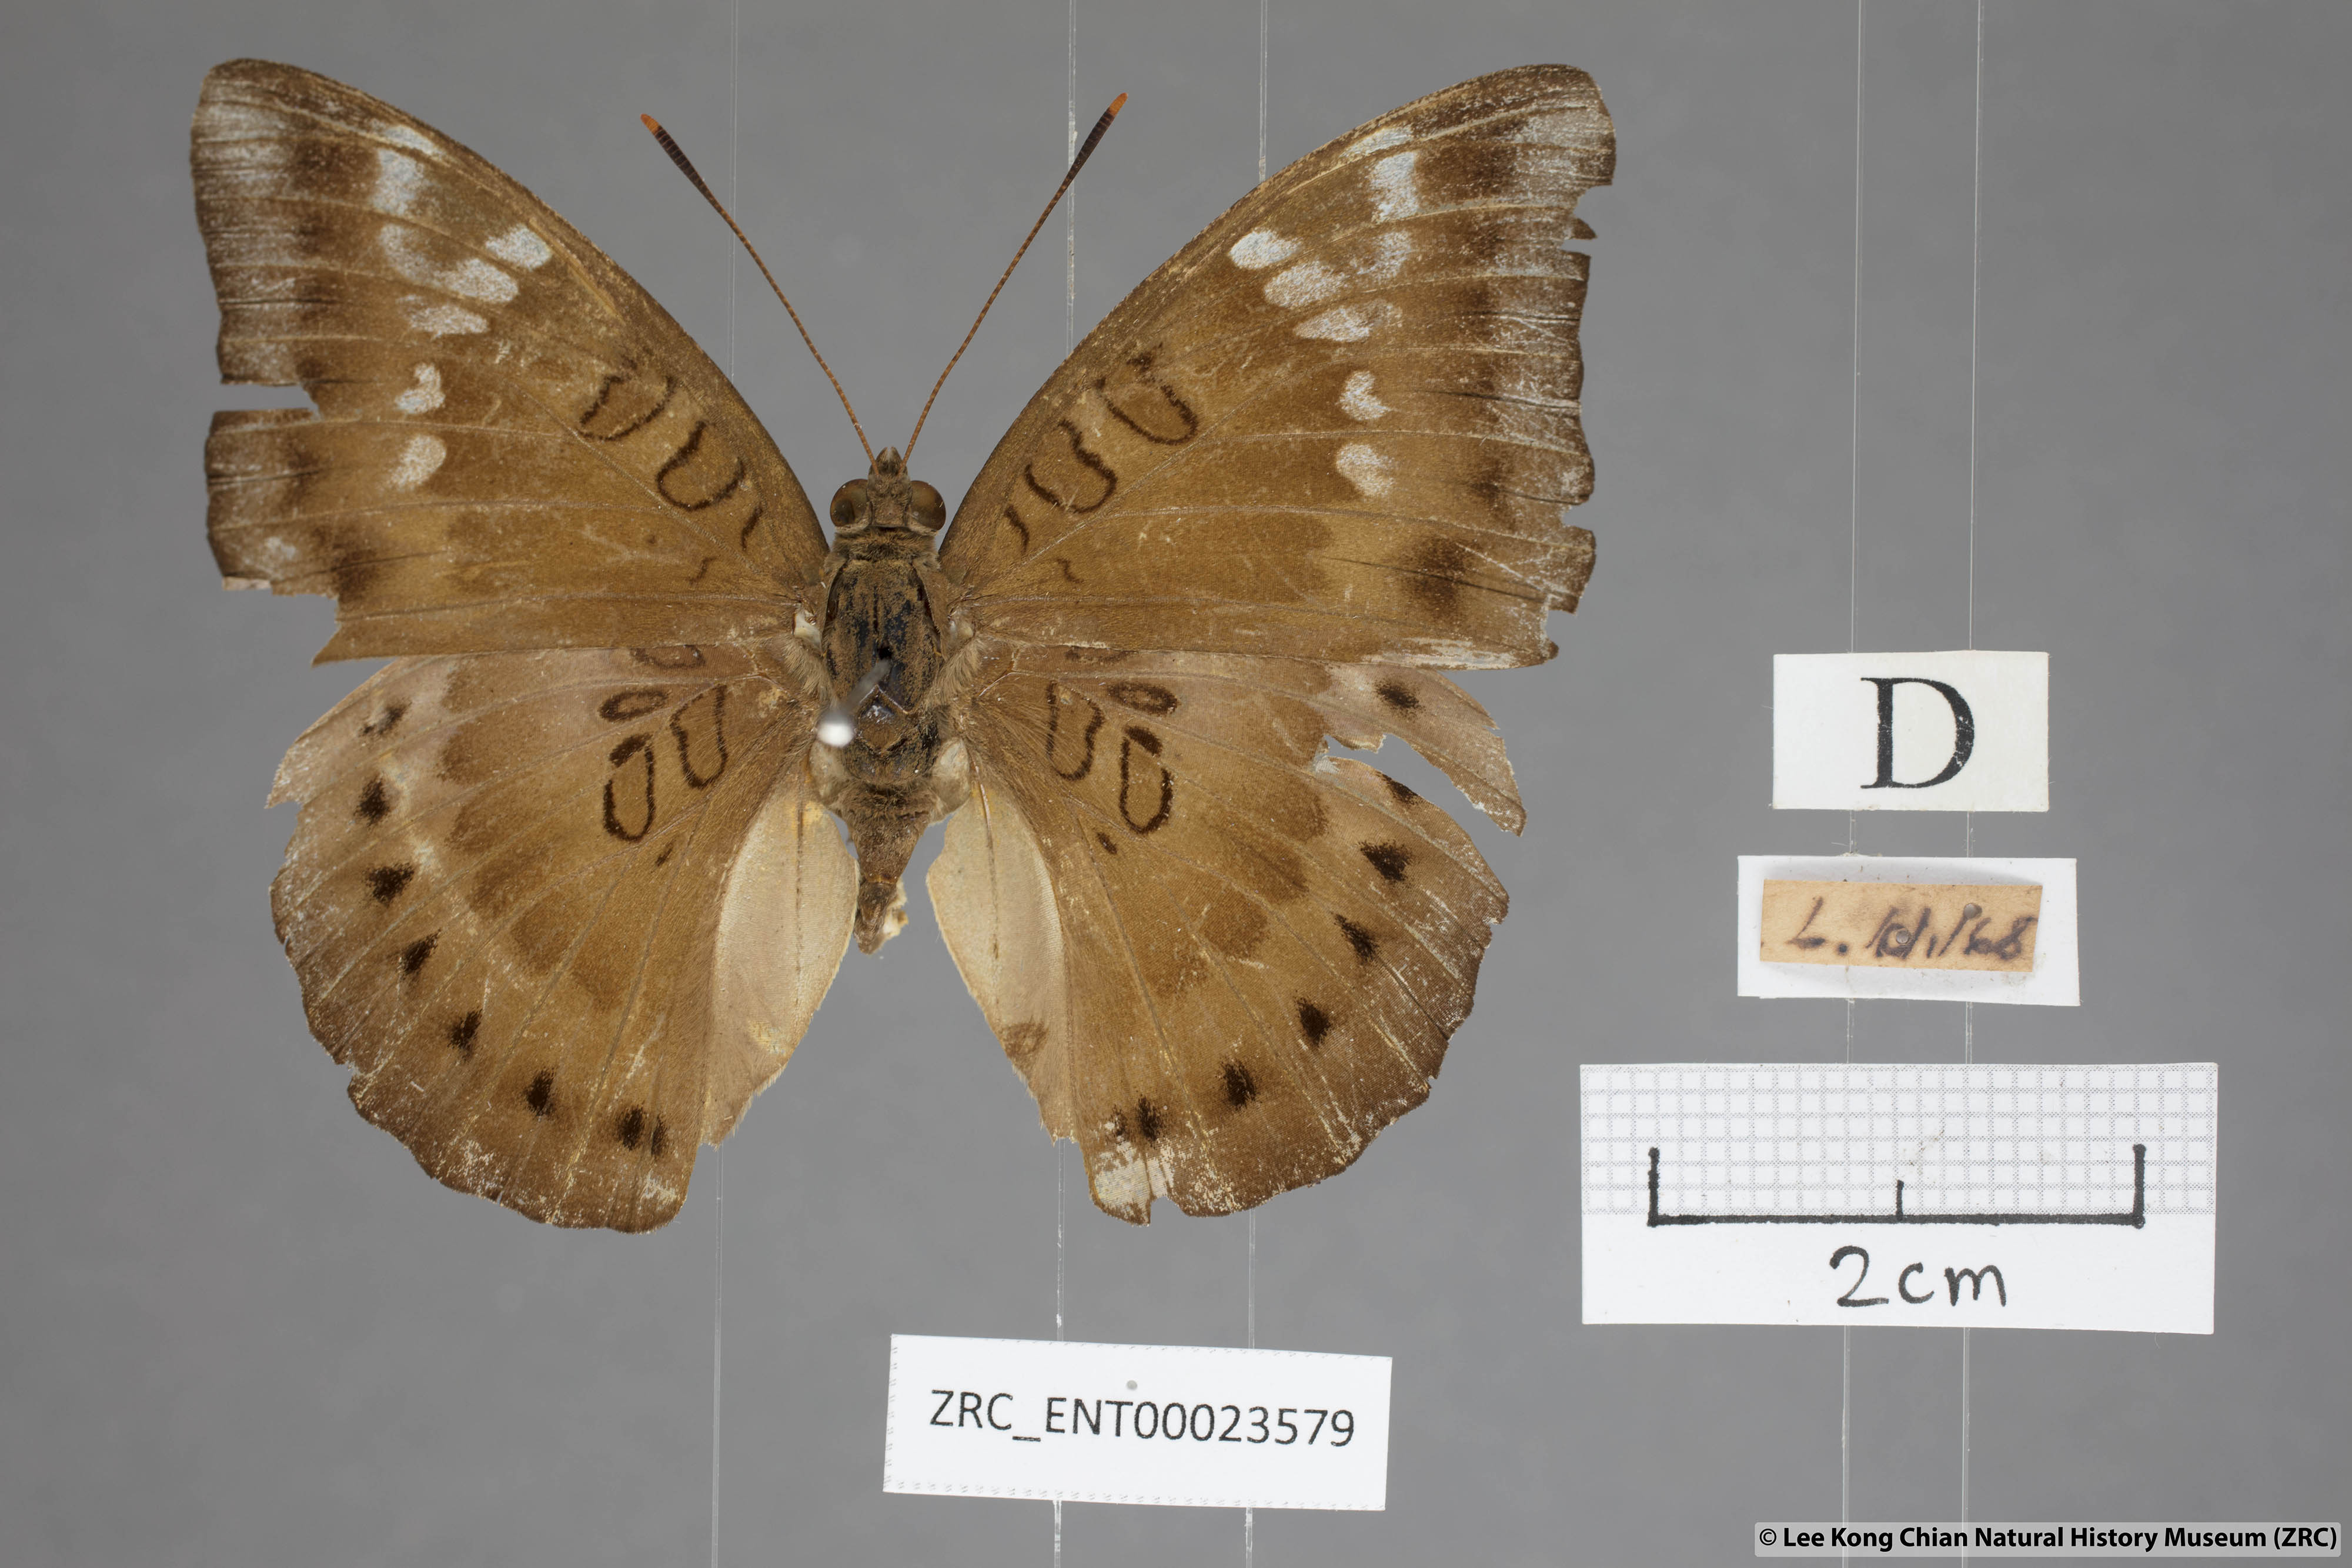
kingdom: Animalia
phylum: Arthropoda
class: Insecta
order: Lepidoptera
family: Nymphalidae
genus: Euthalia
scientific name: Euthalia aconthea
